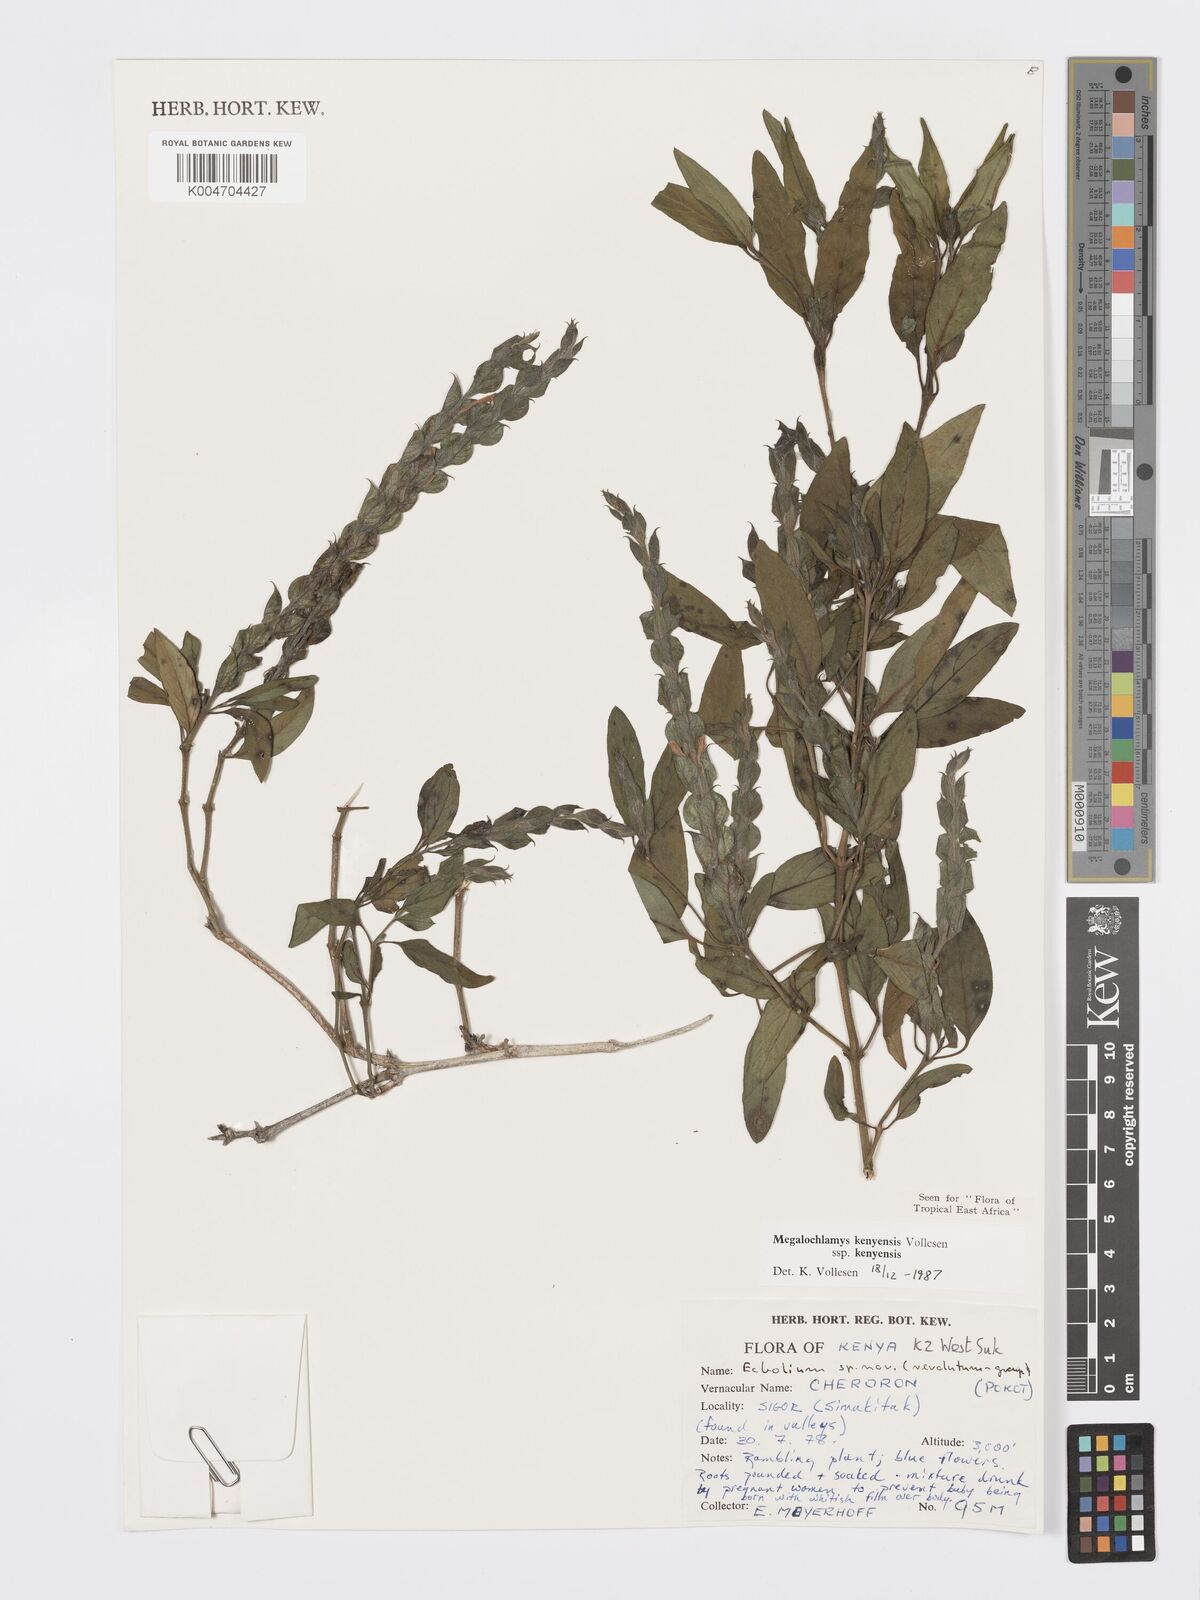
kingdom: Plantae
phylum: Tracheophyta
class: Magnoliopsida
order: Lamiales
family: Acanthaceae
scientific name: Acanthaceae
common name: Acanthaceae
